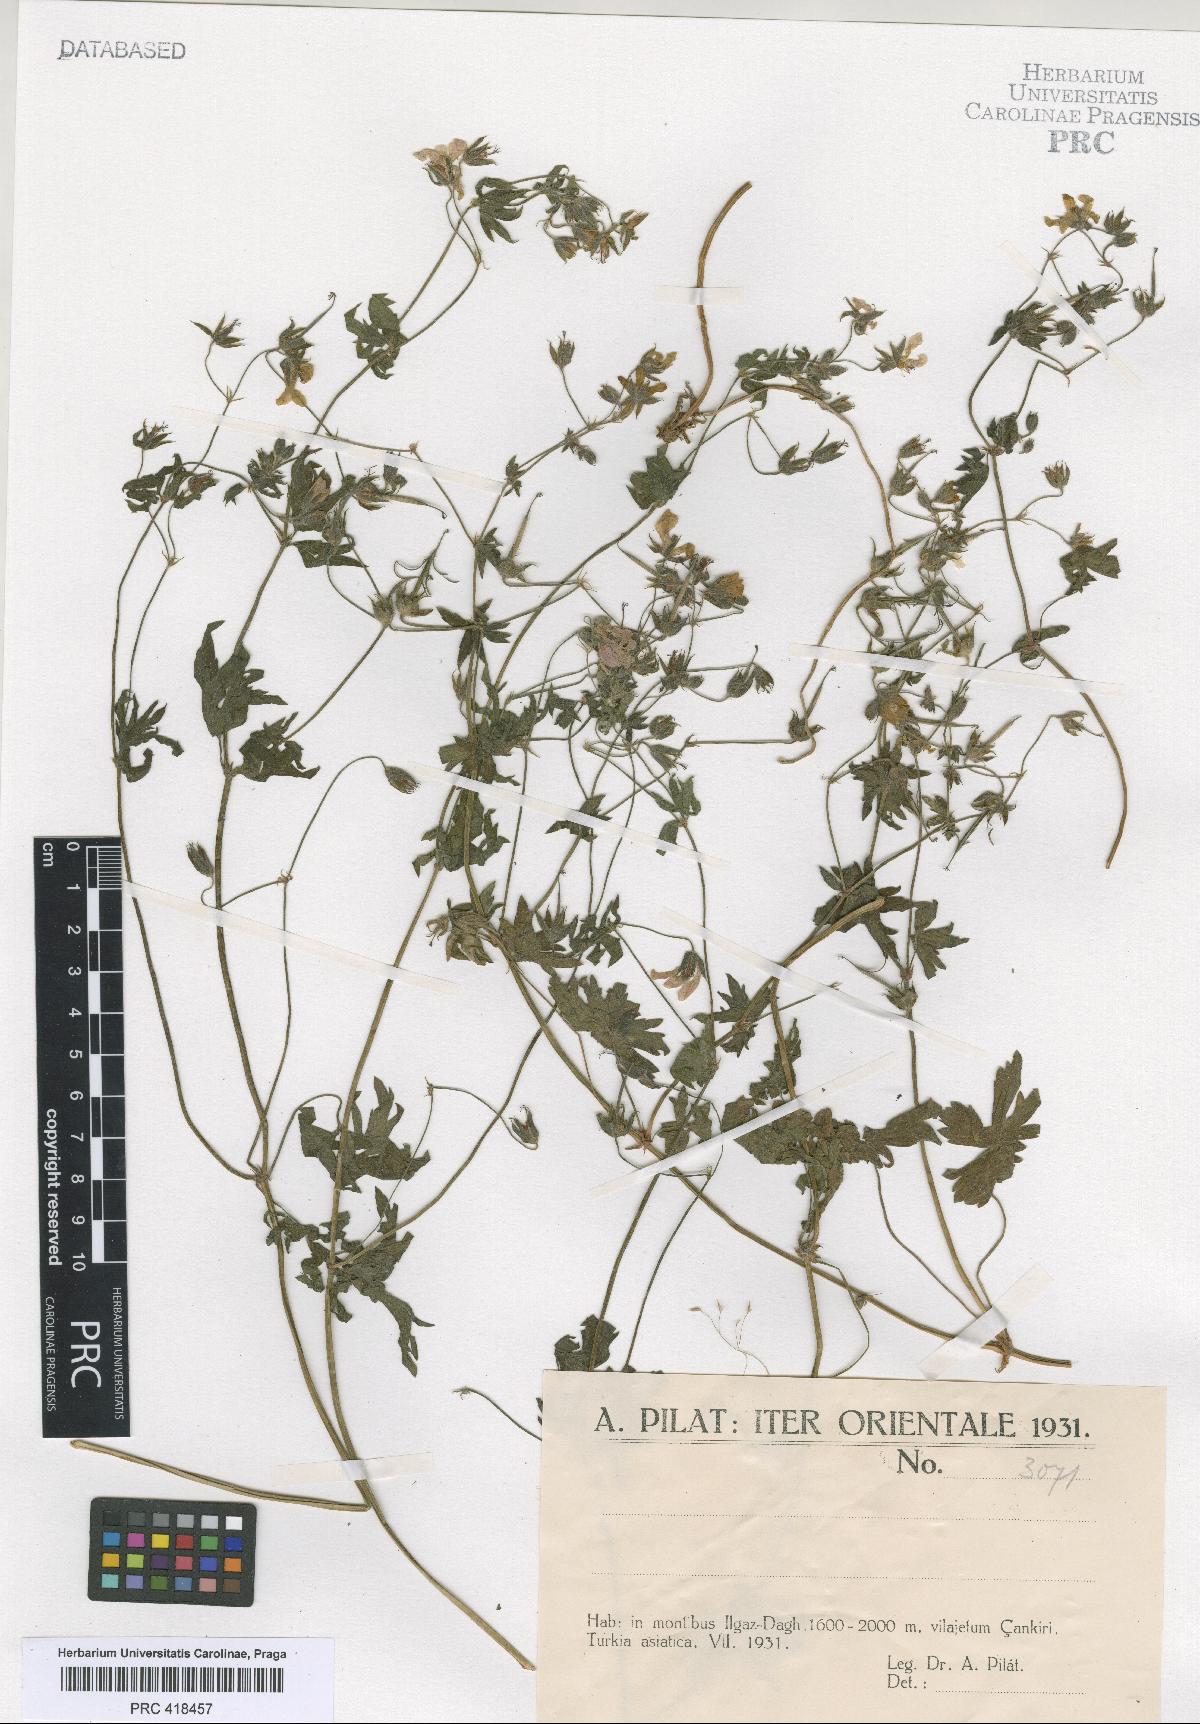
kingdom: Plantae
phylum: Tracheophyta
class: Magnoliopsida
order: Geraniales
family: Geraniaceae
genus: Geranium
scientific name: Geranium asphodeloides
